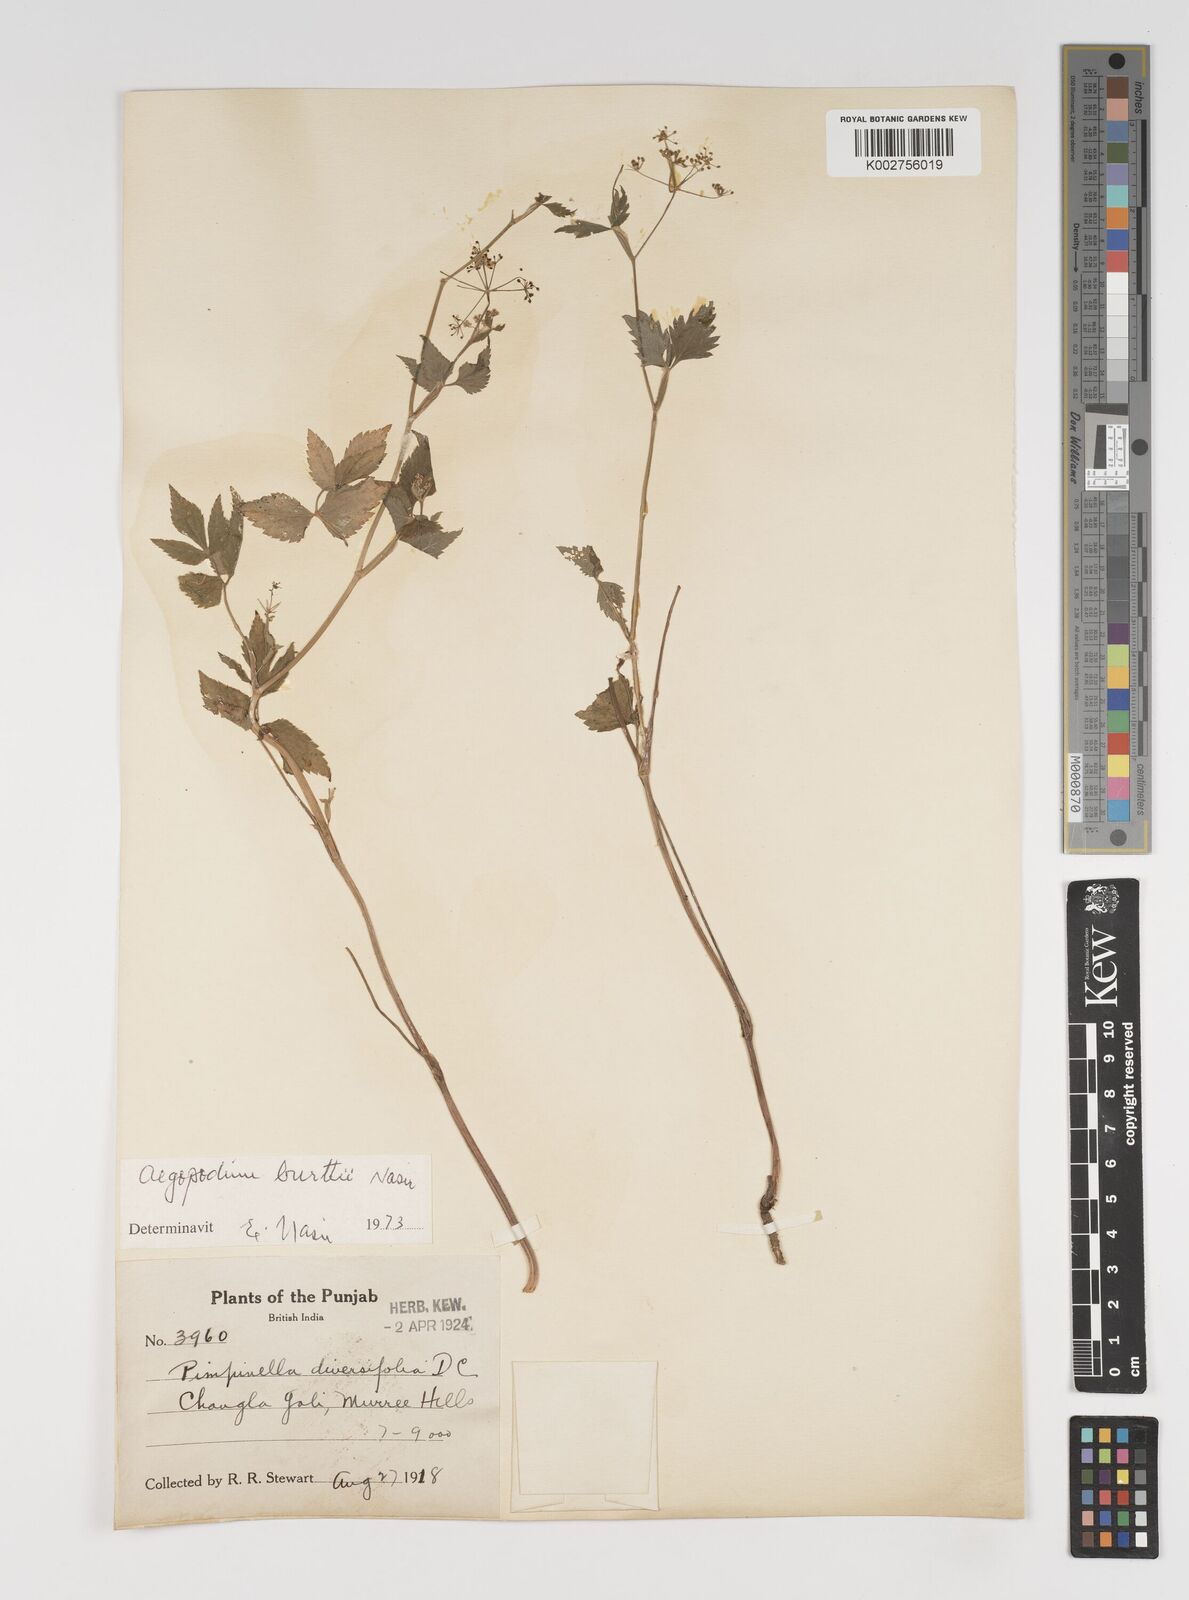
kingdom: Plantae
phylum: Tracheophyta
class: Magnoliopsida
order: Apiales
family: Apiaceae
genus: Pimpinella
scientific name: Pimpinella diversifolia
